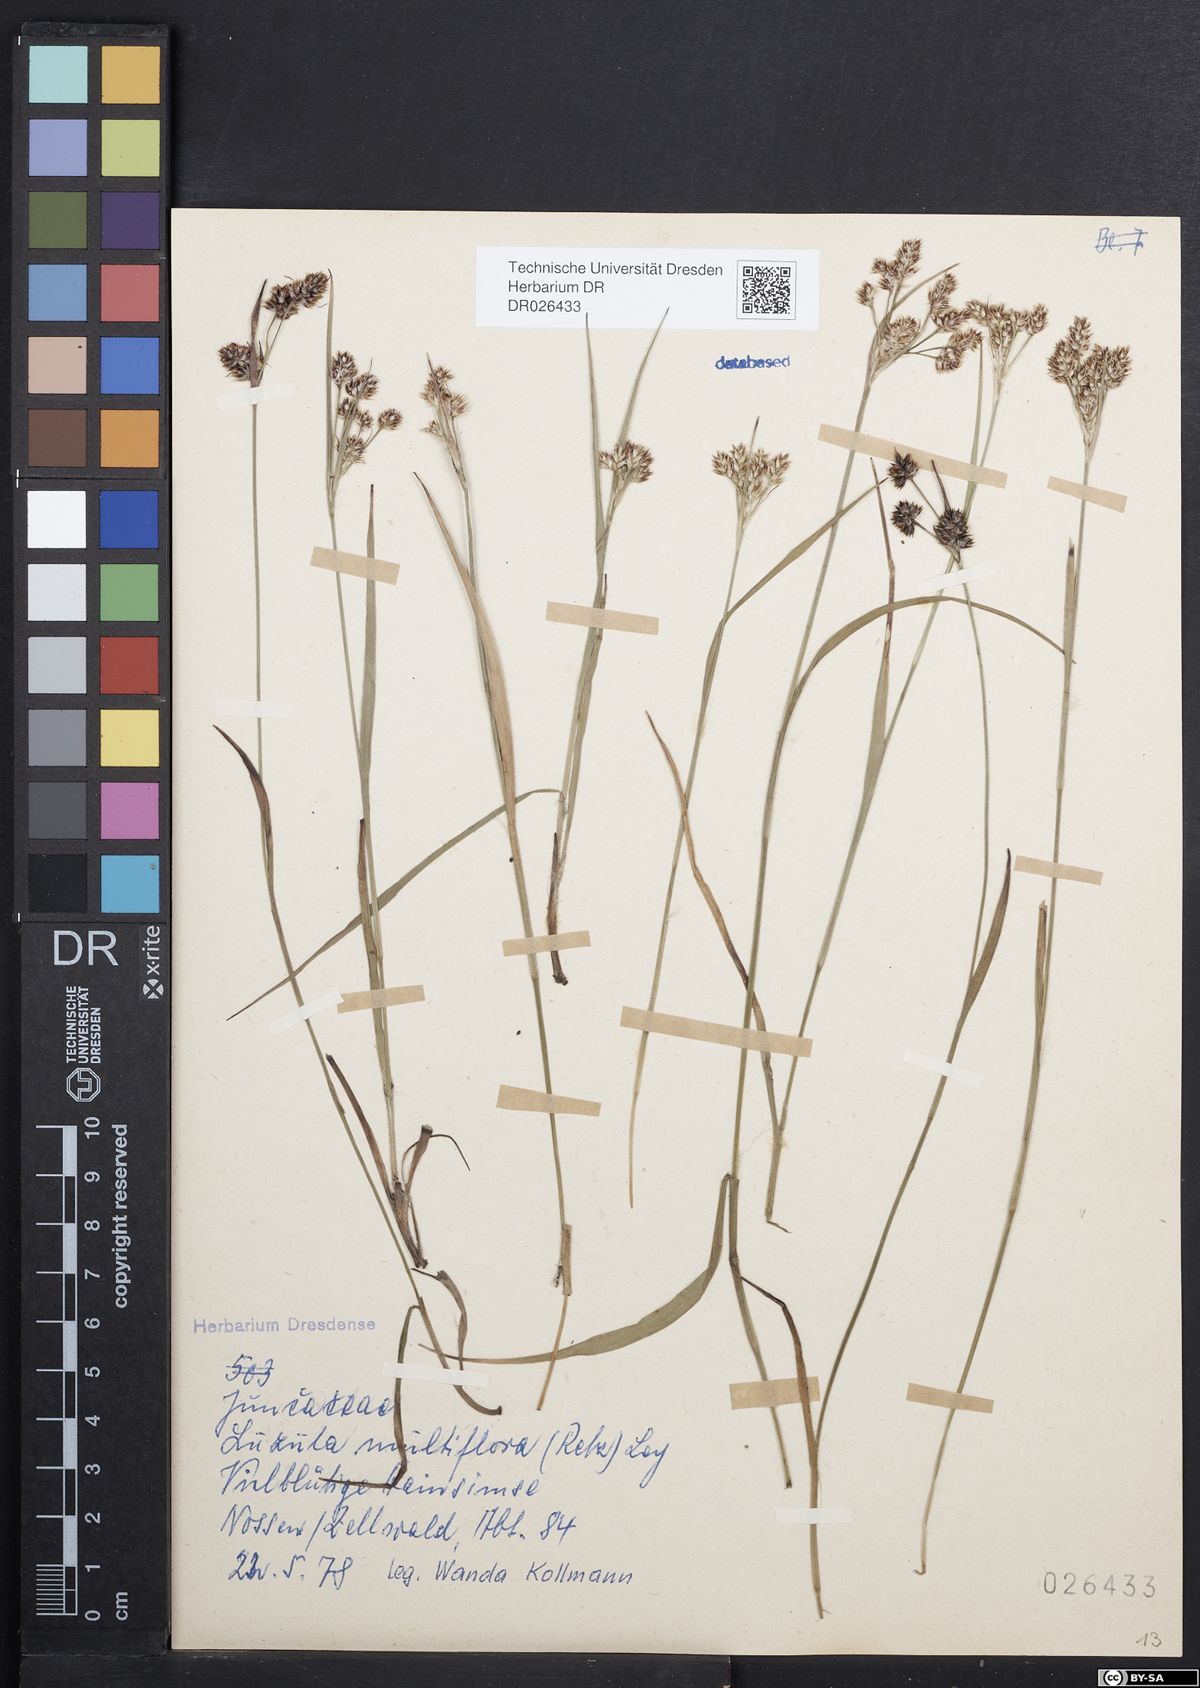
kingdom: Plantae
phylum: Tracheophyta
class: Liliopsida
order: Poales
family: Juncaceae
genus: Luzula
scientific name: Luzula multiflora
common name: Heath wood-rush
